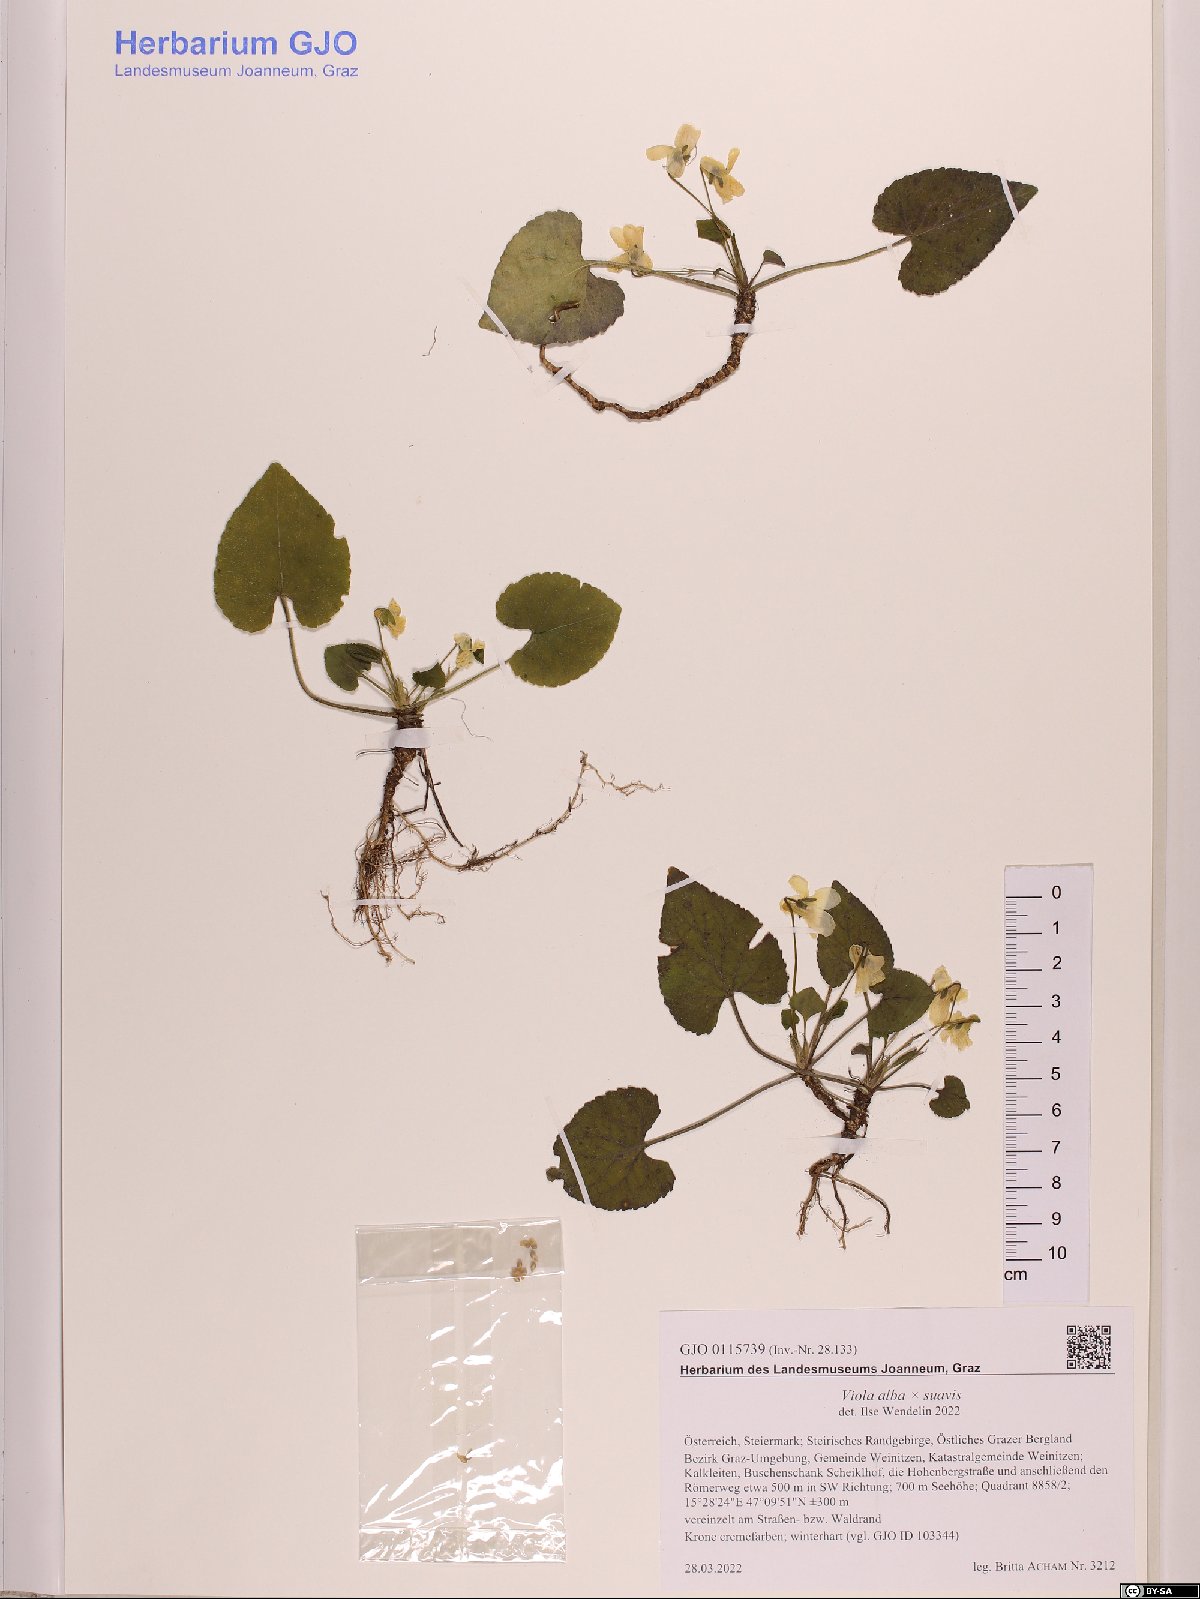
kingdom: Plantae
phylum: Tracheophyta
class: Magnoliopsida
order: Malpighiales
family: Violaceae
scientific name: Violaceae
